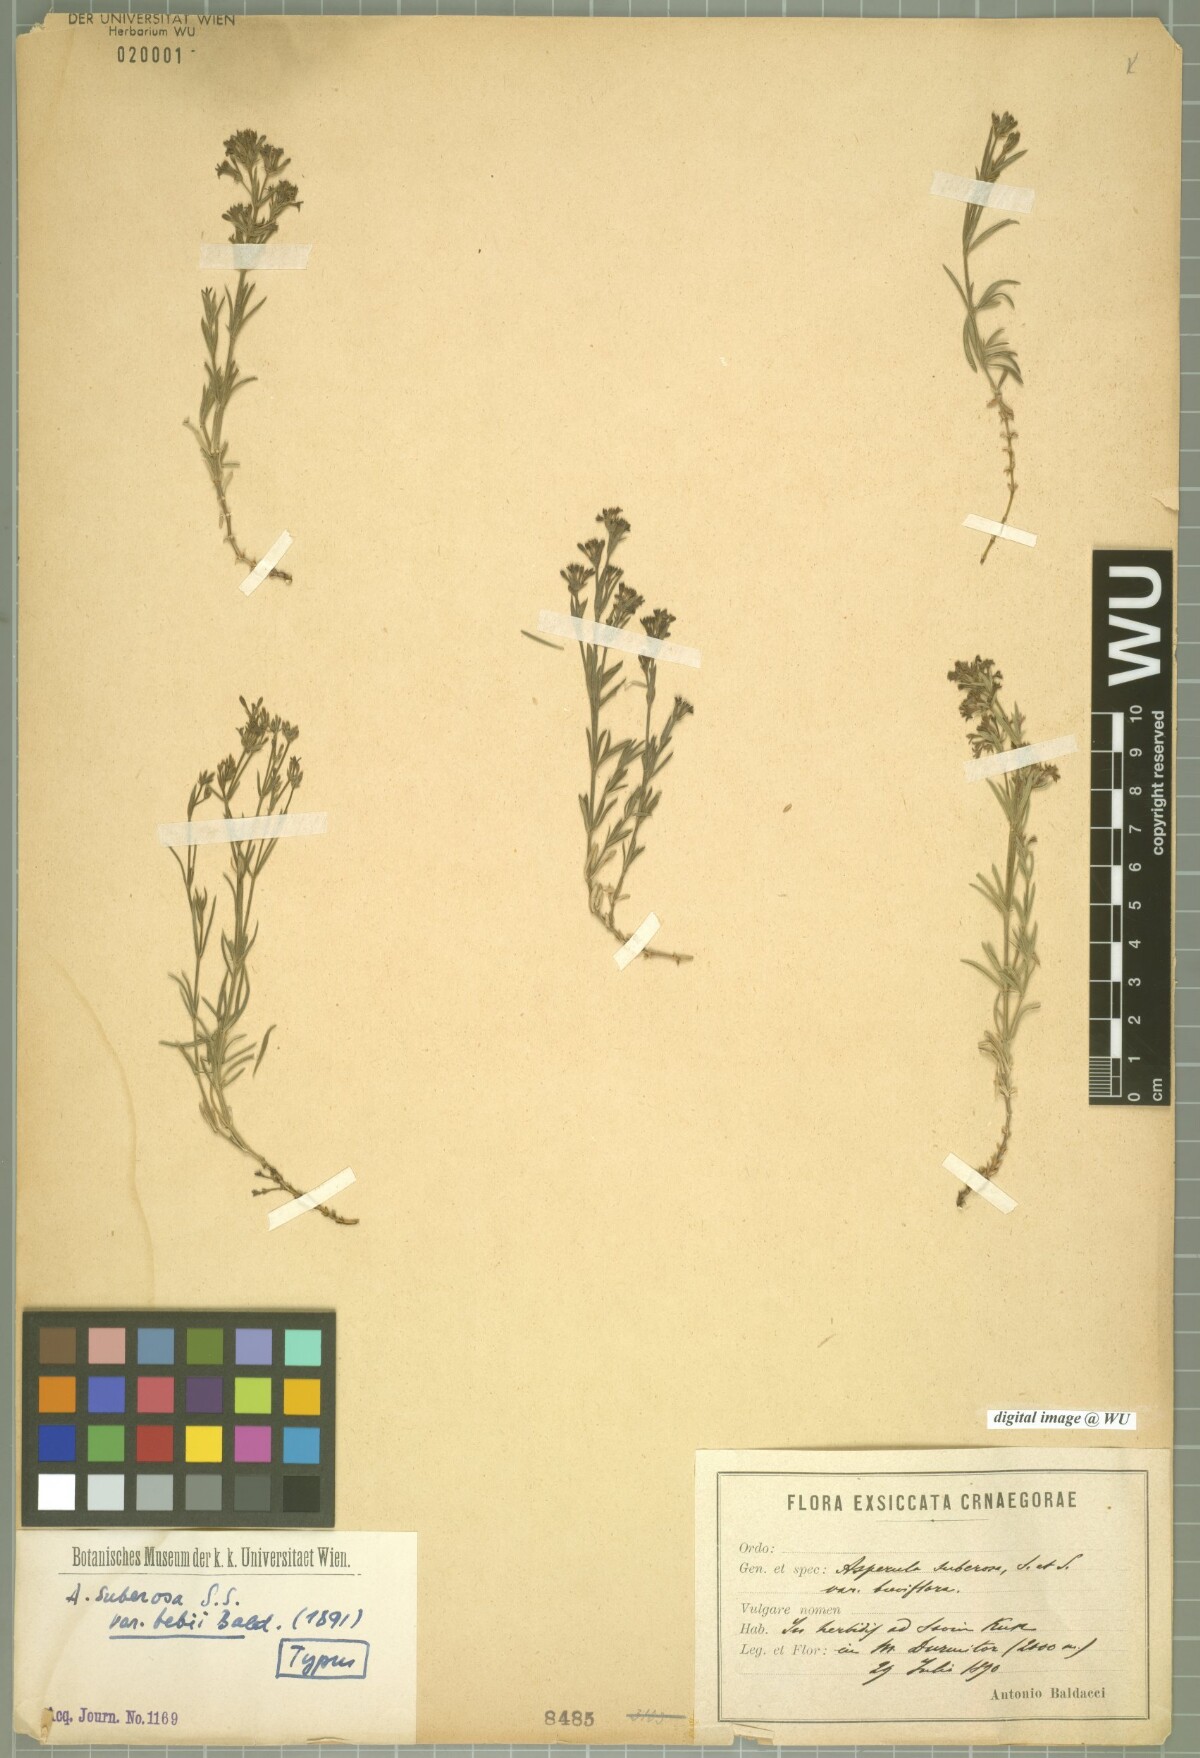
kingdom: Plantae
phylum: Tracheophyta
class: Magnoliopsida
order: Gentianales
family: Rubiaceae
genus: Cynanchica
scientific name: Cynanchica
